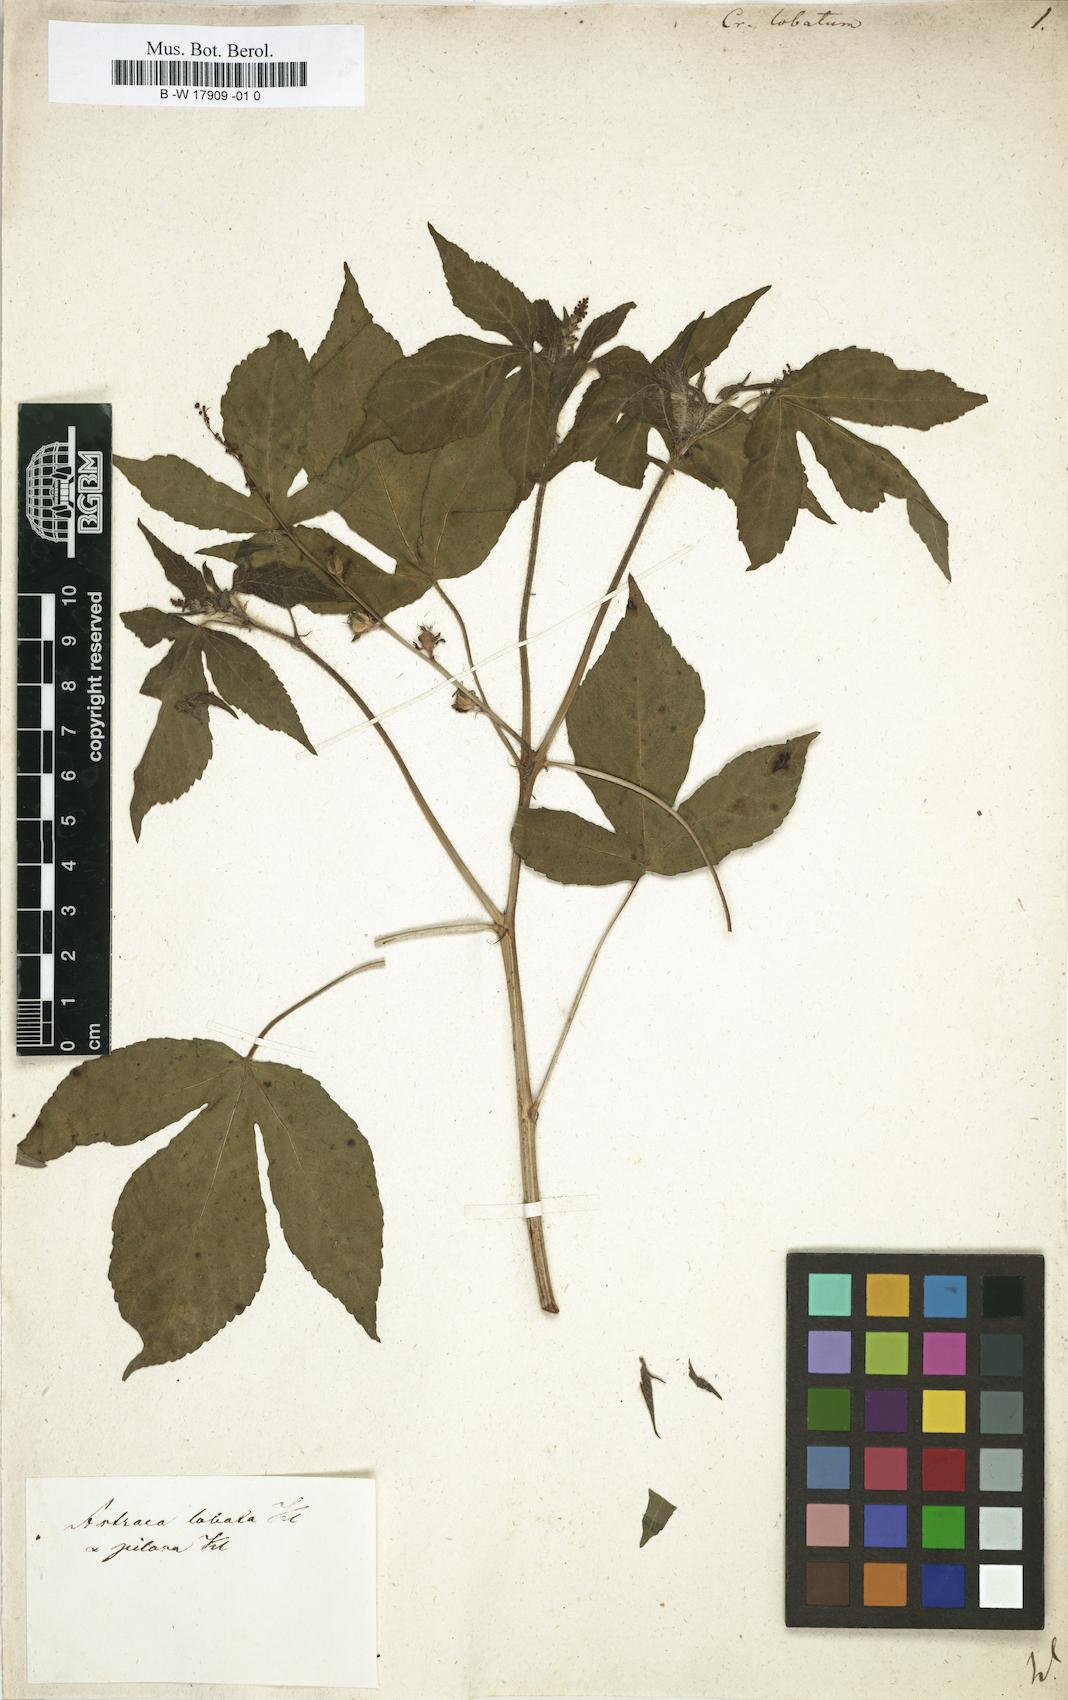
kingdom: Plantae
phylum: Tracheophyta
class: Magnoliopsida
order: Malpighiales
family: Euphorbiaceae
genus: Astraea
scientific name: Astraea lobata
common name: Lobed croton
